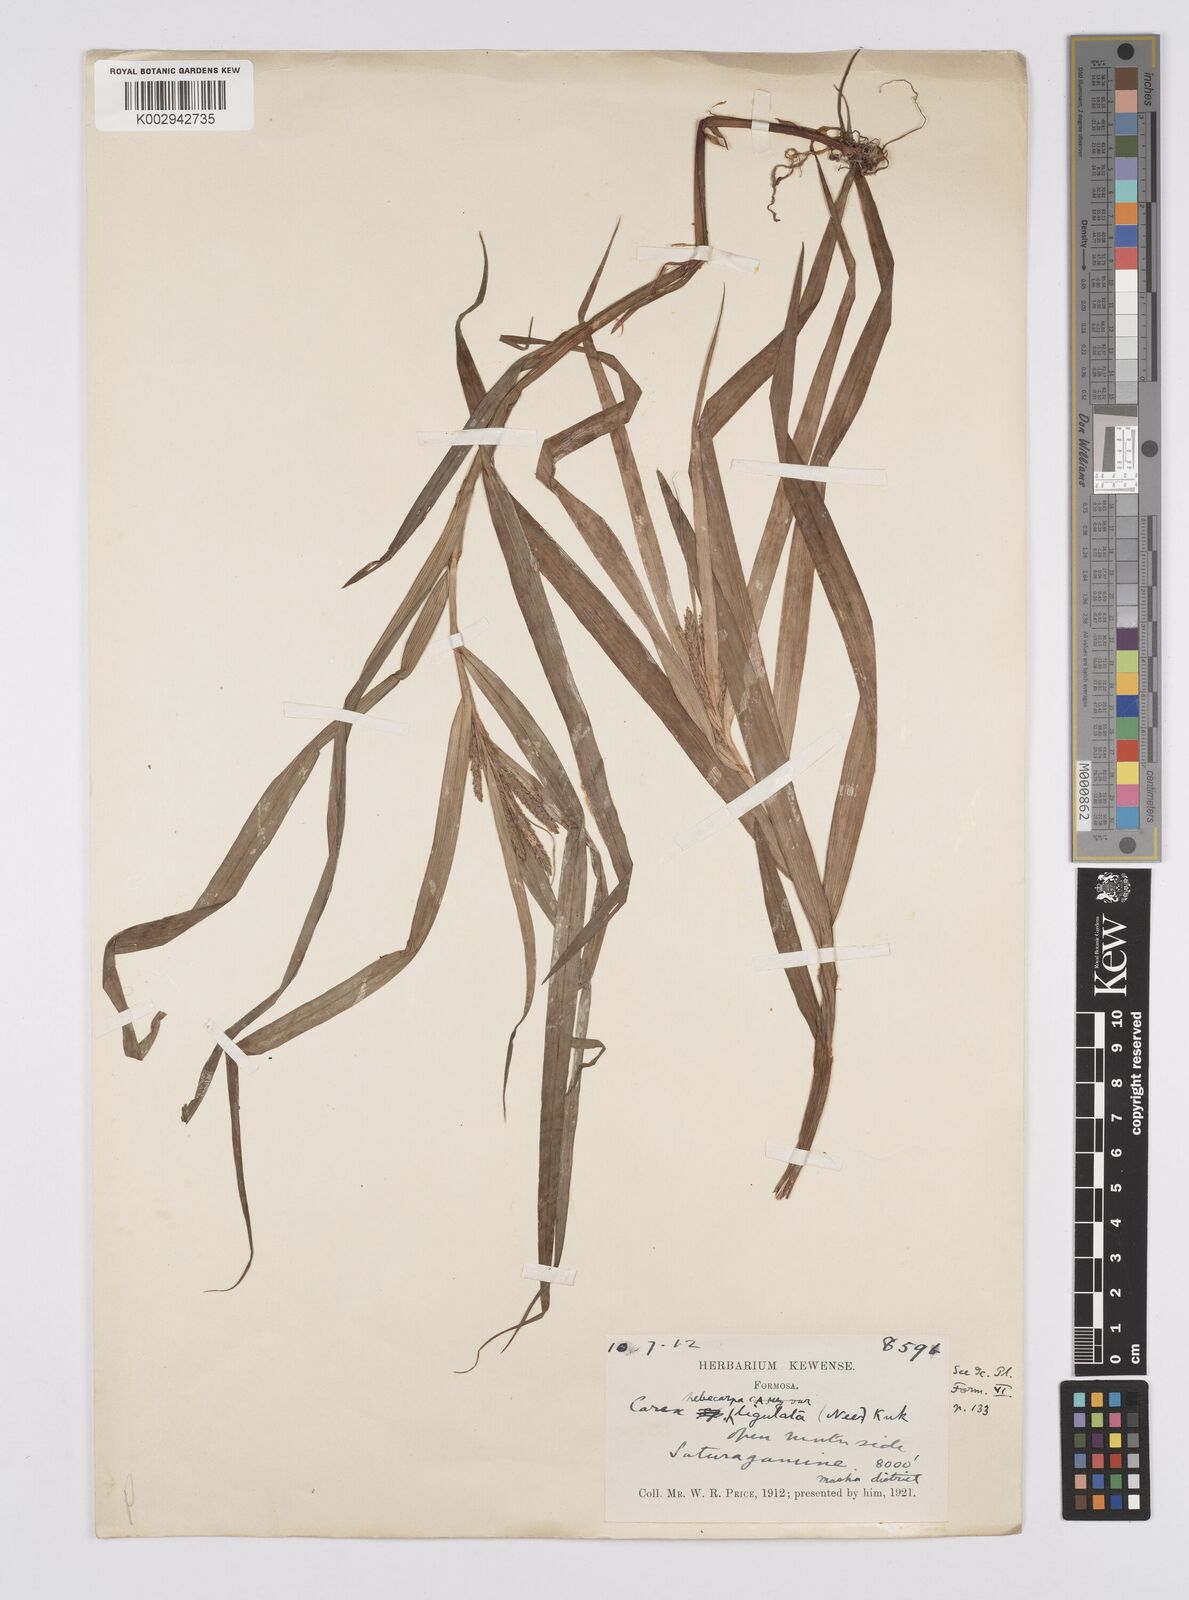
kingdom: Plantae
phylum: Tracheophyta
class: Liliopsida
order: Poales
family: Cyperaceae
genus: Carex
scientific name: Carex ligulata
